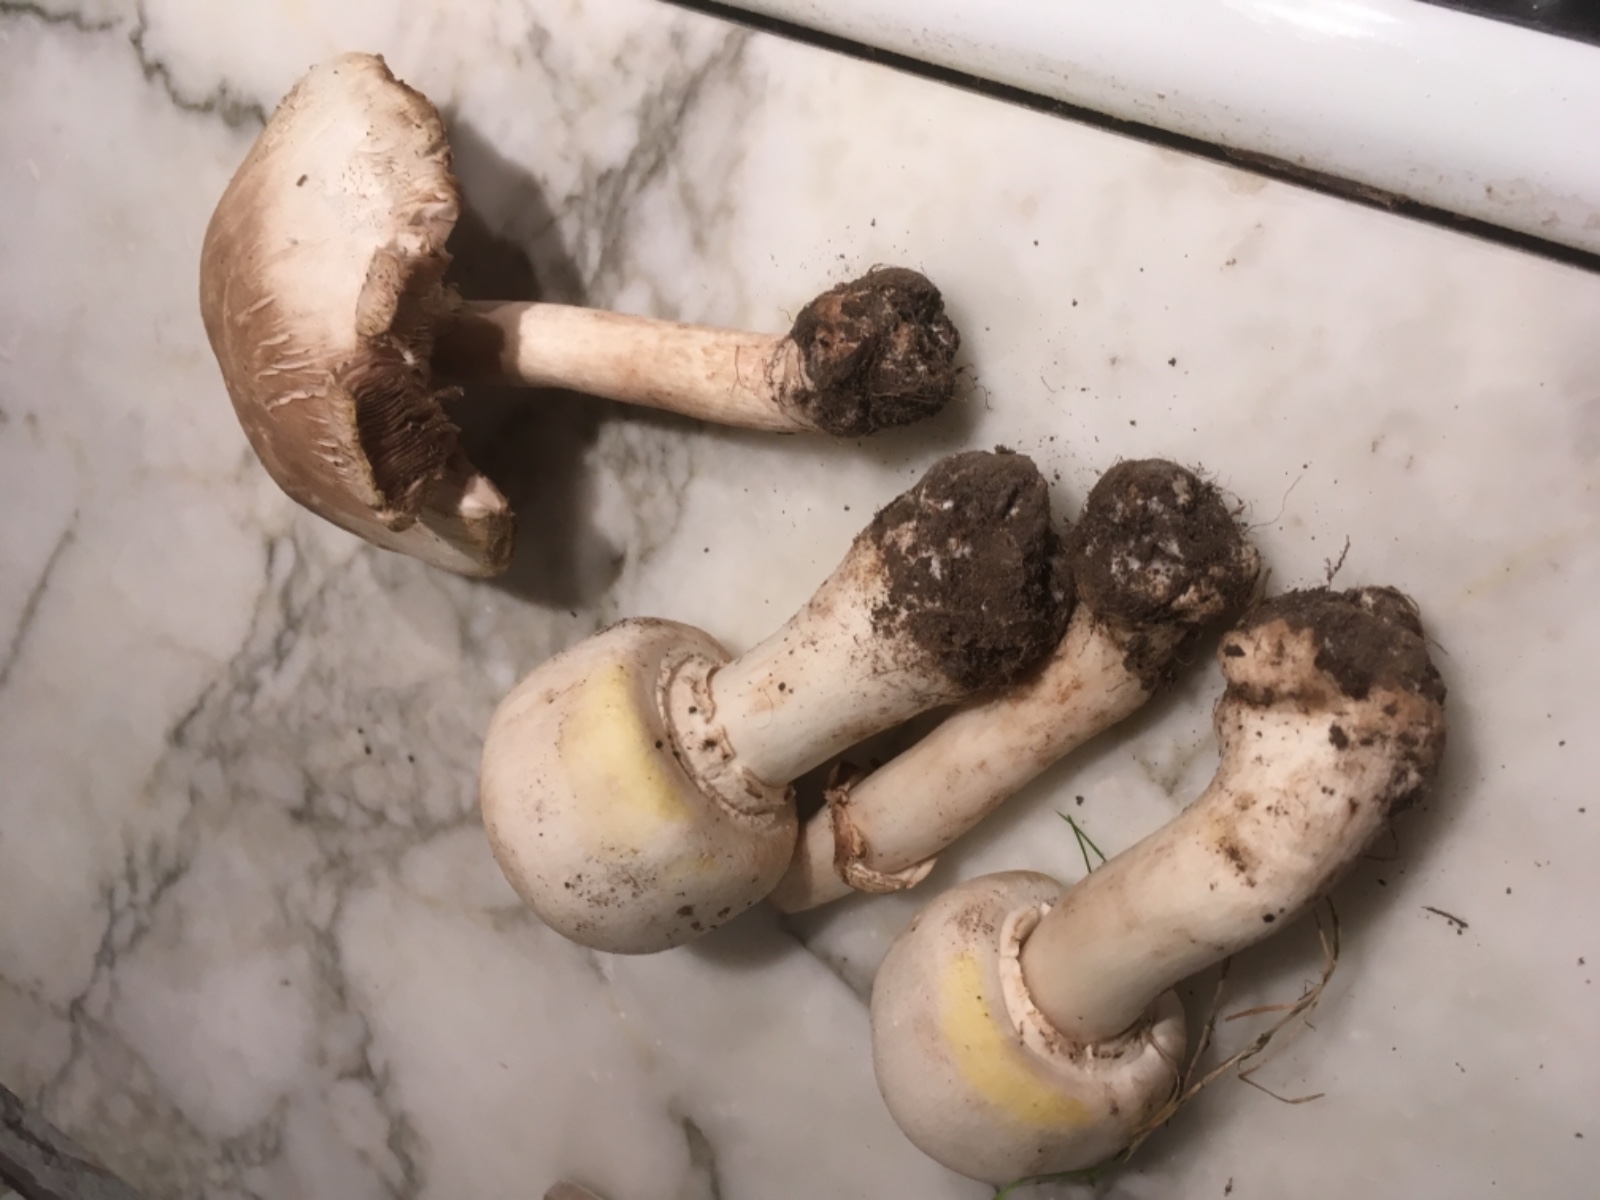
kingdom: Fungi
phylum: Basidiomycota
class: Agaricomycetes
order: Agaricales
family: Agaricaceae
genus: Agaricus
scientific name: Agaricus xanthodermus
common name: karbol-champignon
